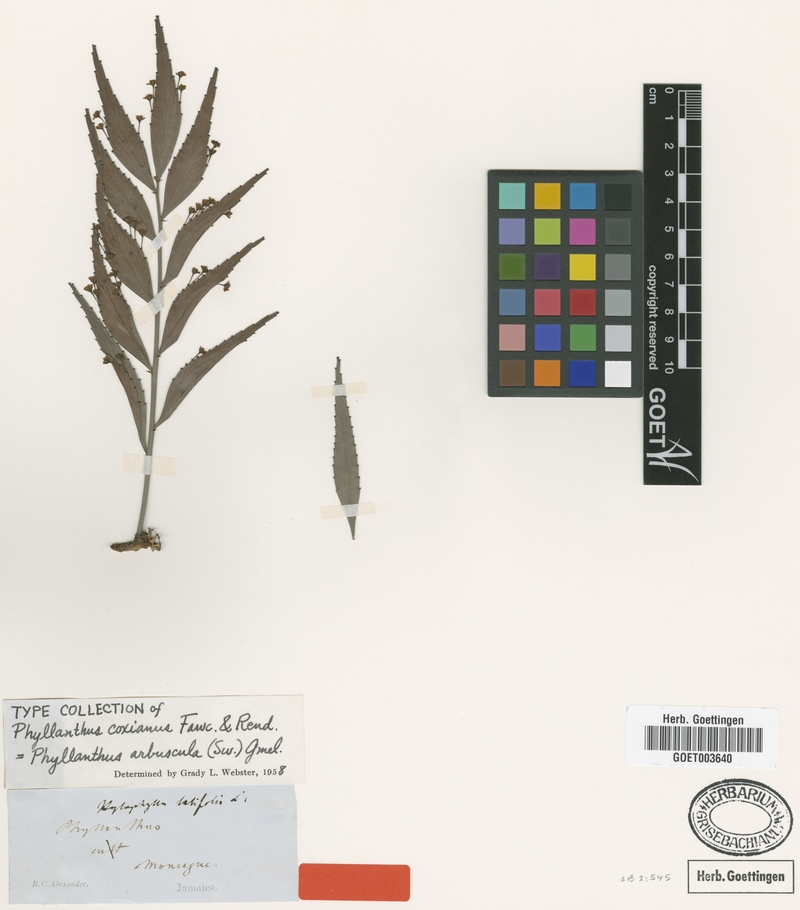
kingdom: Plantae
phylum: Tracheophyta
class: Magnoliopsida
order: Malpighiales
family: Phyllanthaceae
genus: Phyllanthus
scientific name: Phyllanthus arbuscula
